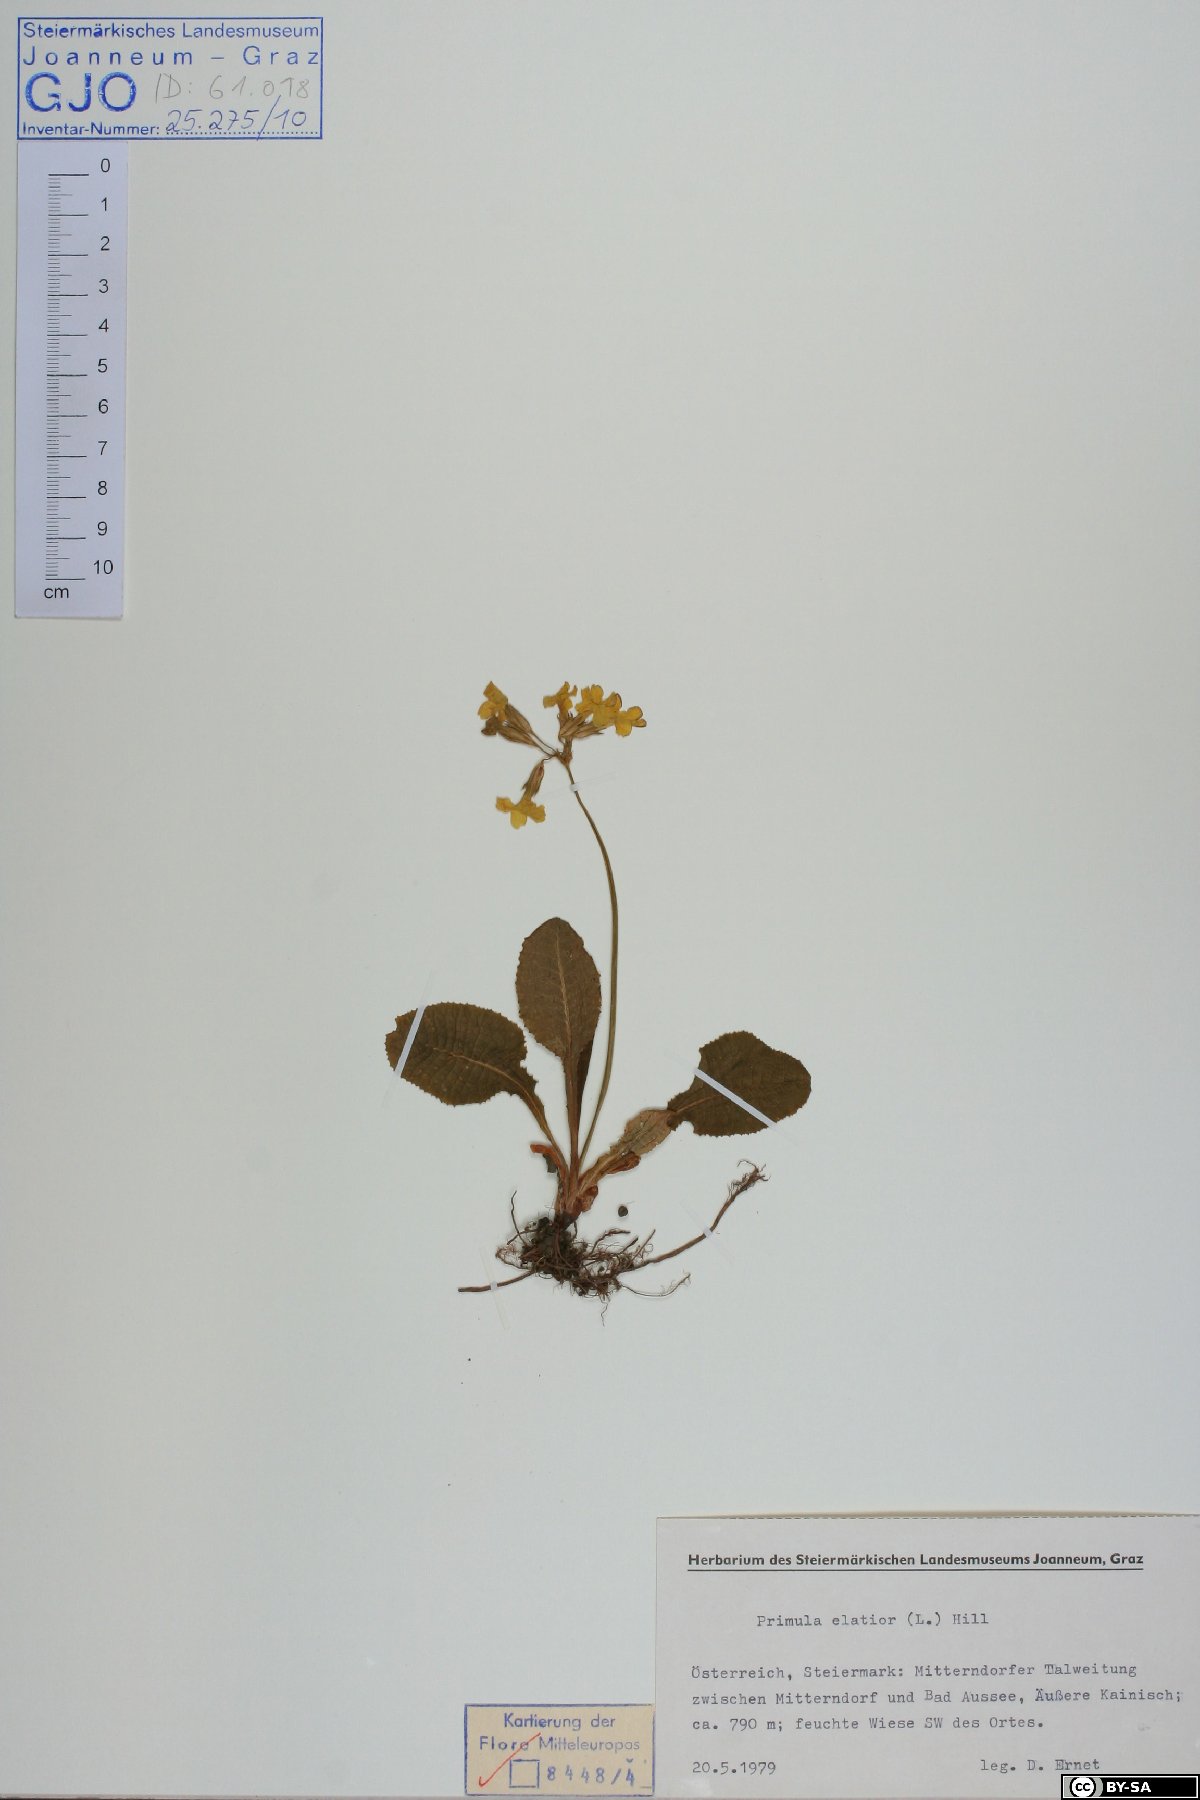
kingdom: Plantae
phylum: Tracheophyta
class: Magnoliopsida
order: Ericales
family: Primulaceae
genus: Primula
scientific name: Primula elatior
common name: Oxlip
